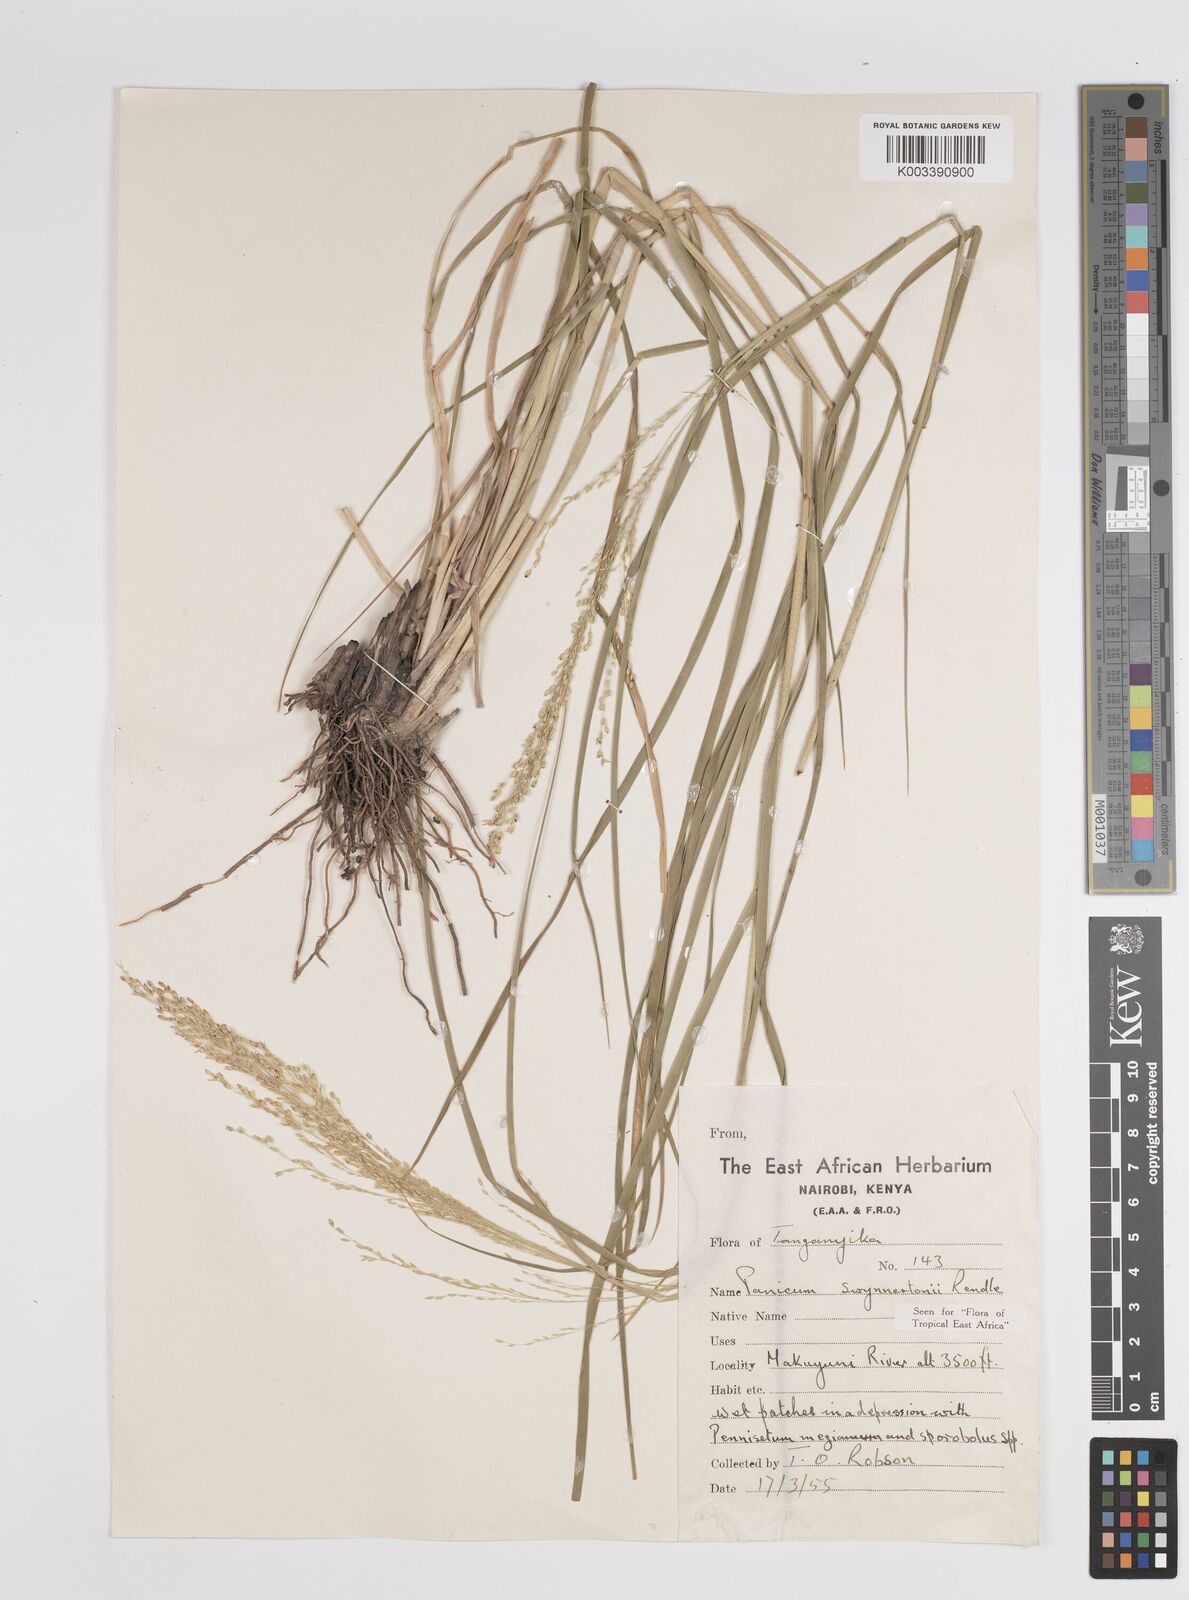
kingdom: Plantae
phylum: Tracheophyta
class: Liliopsida
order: Poales
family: Poaceae
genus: Panicum
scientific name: Panicum merkeri
